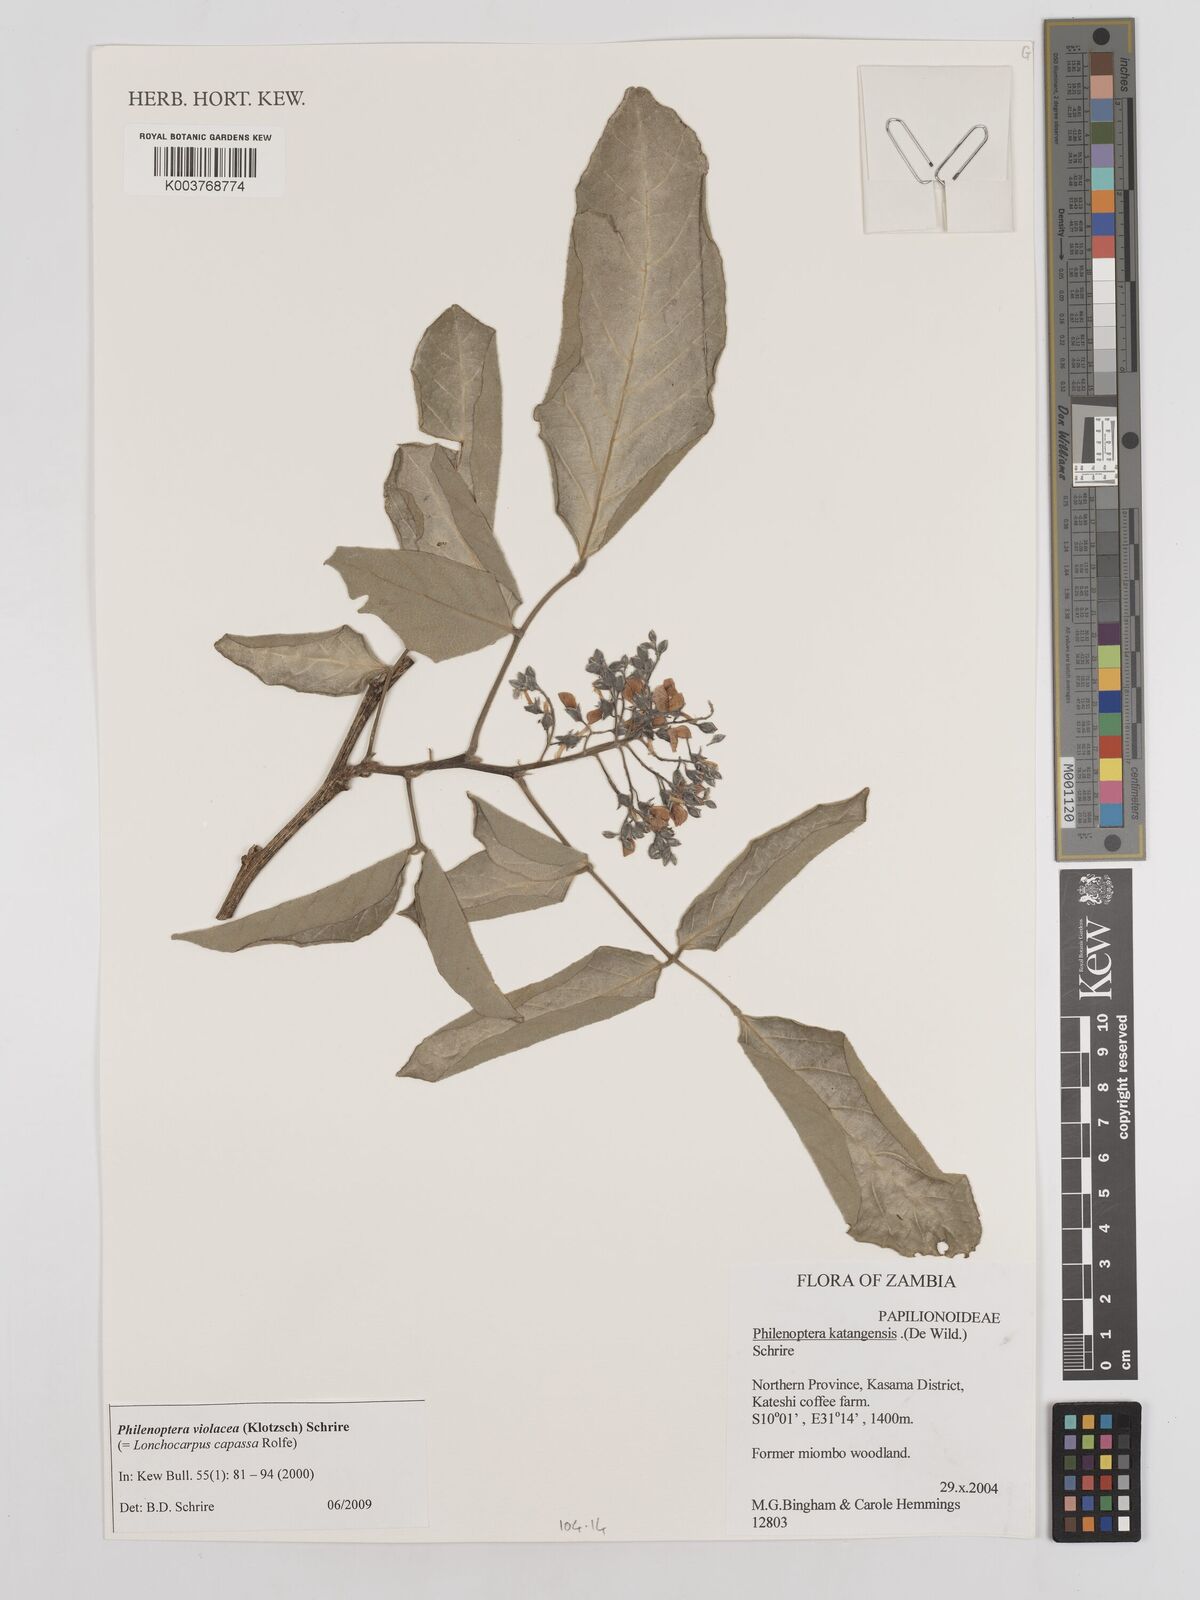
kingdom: Plantae
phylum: Tracheophyta
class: Magnoliopsida
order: Fabales
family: Fabaceae
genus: Philenoptera
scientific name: Philenoptera violacea
